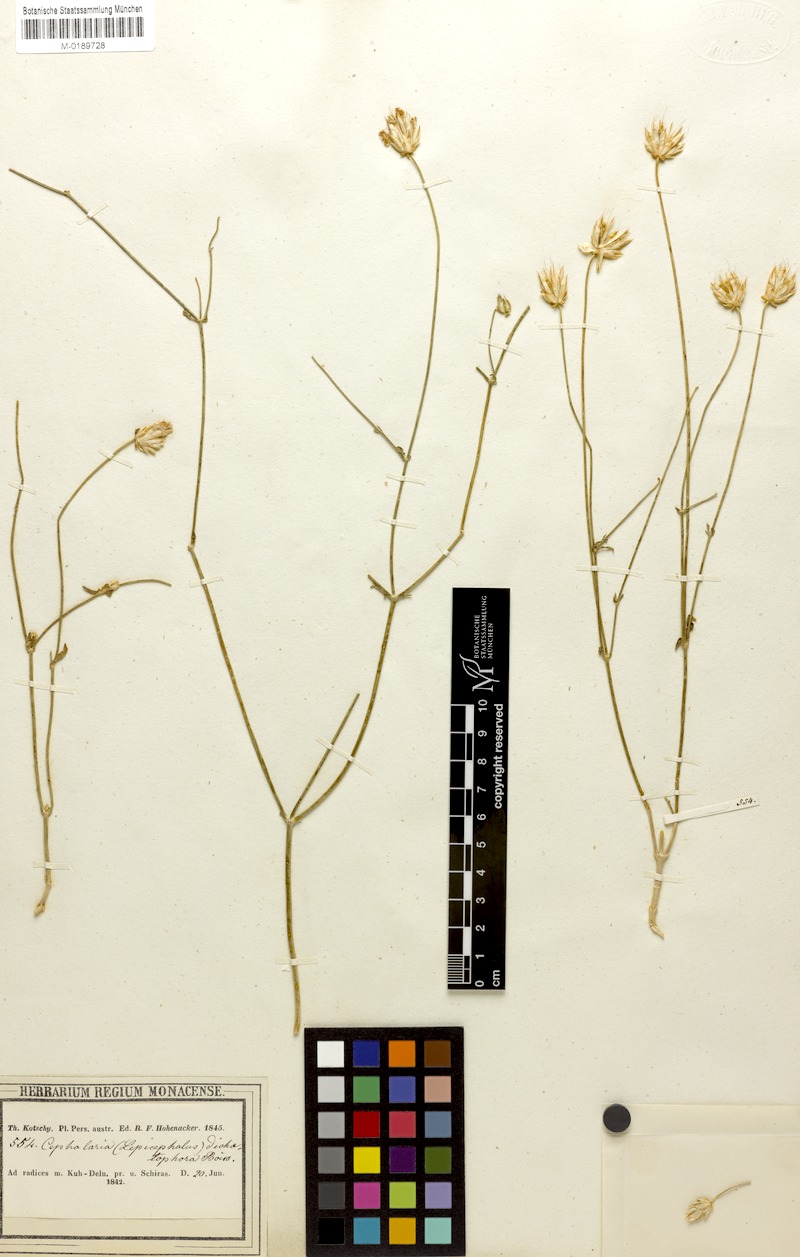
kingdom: Plantae
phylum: Tracheophyta
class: Magnoliopsida
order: Dipsacales
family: Caprifoliaceae
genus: Cephalaria
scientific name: Cephalaria dichaetophora
